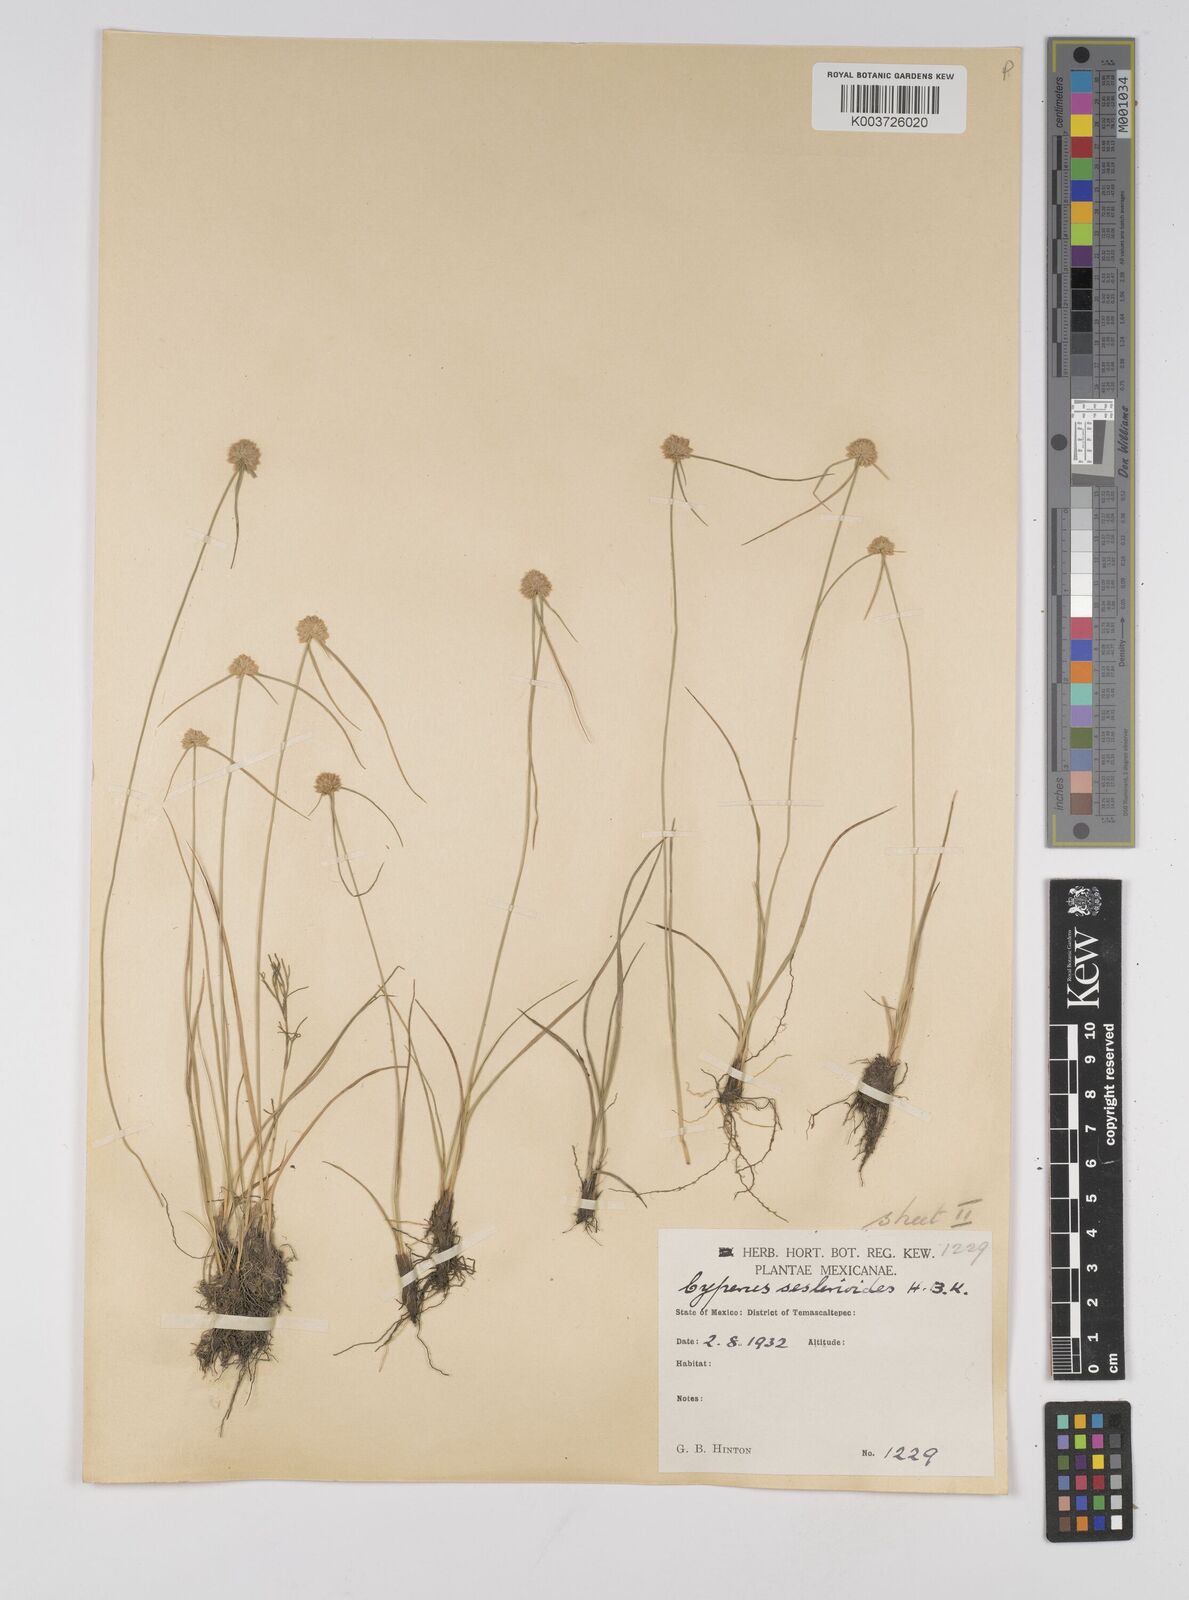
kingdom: Plantae
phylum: Tracheophyta
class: Liliopsida
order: Poales
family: Cyperaceae
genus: Cyperus
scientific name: Cyperus seslerioides
